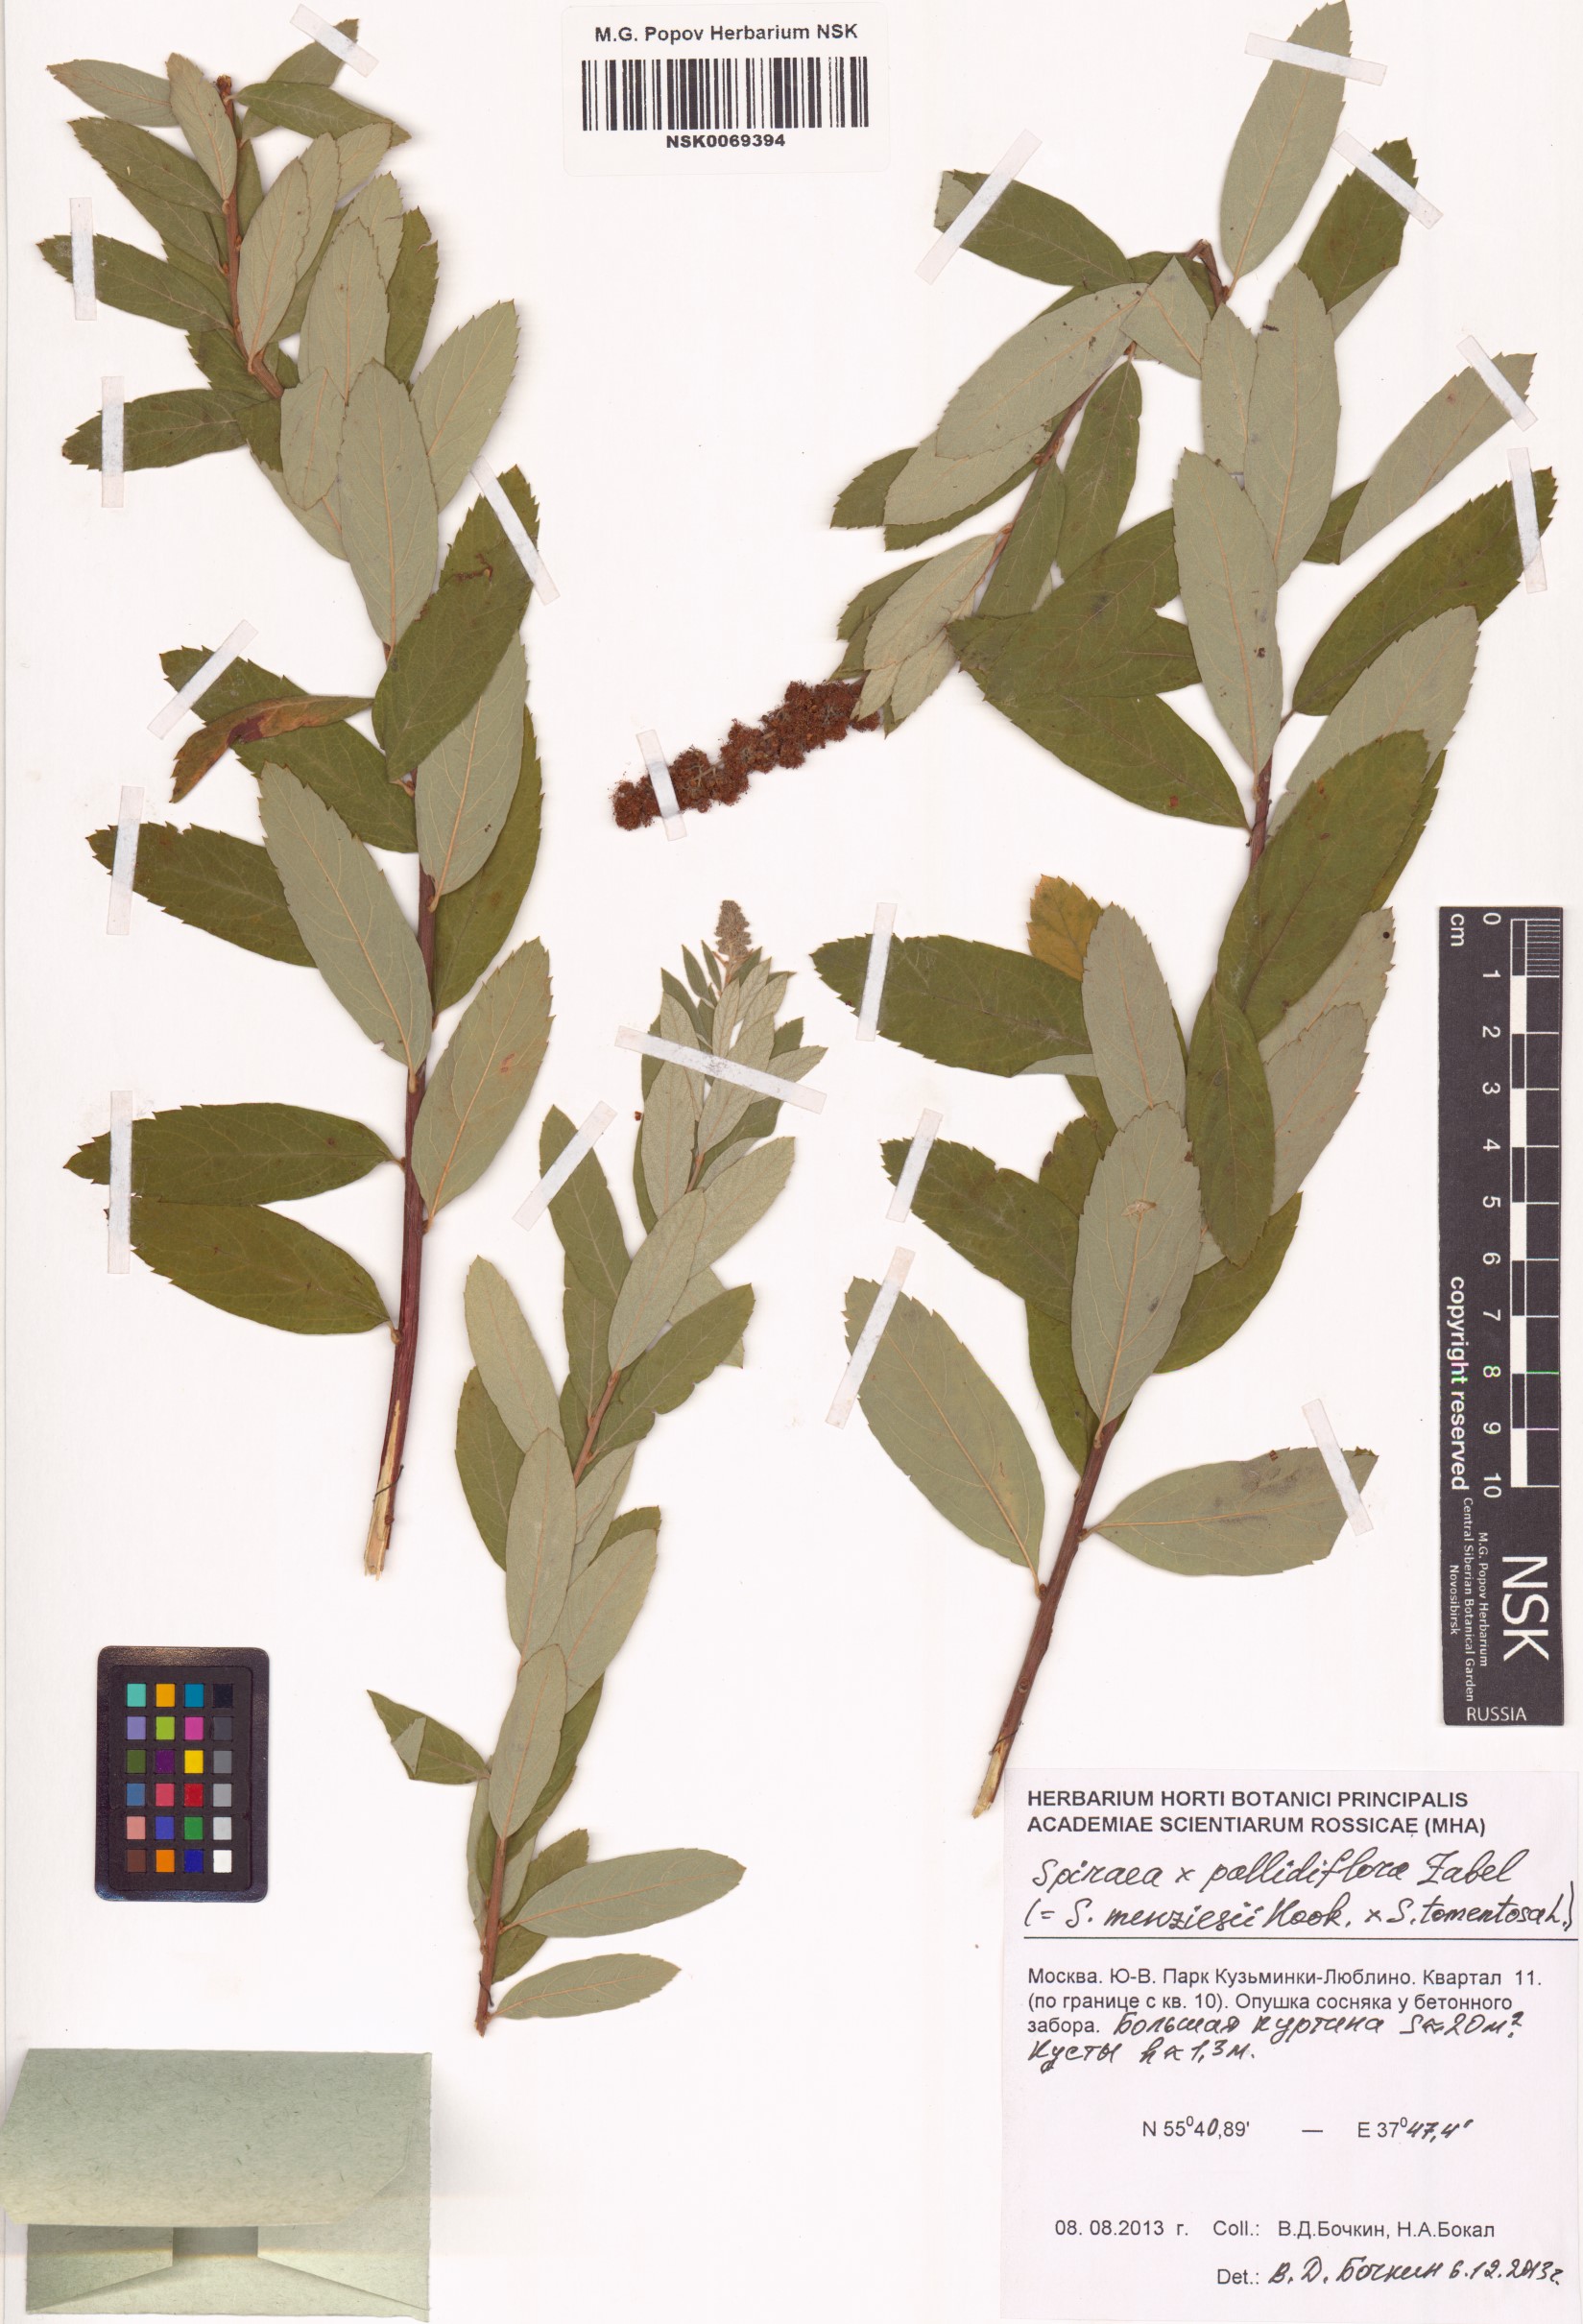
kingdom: Plantae
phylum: Tracheophyta
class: Magnoliopsida
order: Rosales
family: Rosaceae
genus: Spiraea
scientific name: Spiraea douglasii
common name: Steeplebush
